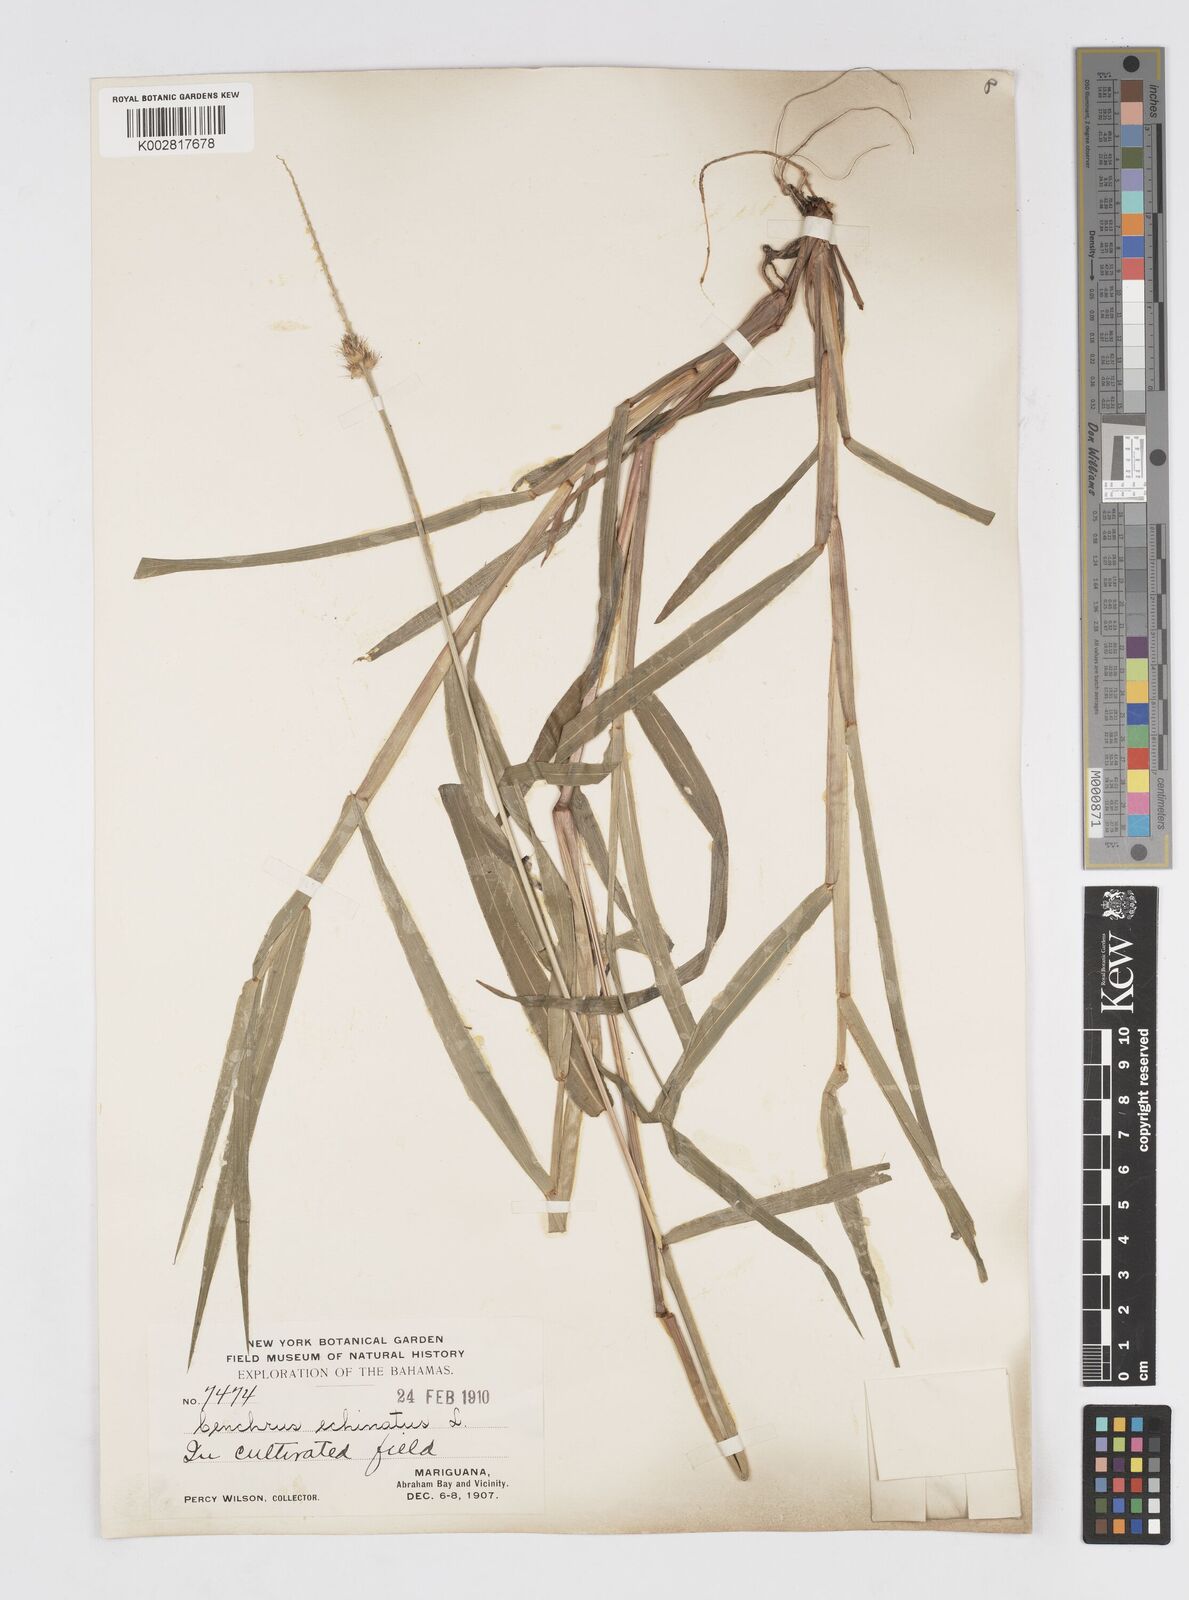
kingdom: Plantae
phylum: Tracheophyta
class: Liliopsida
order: Poales
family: Poaceae
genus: Cenchrus
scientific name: Cenchrus
